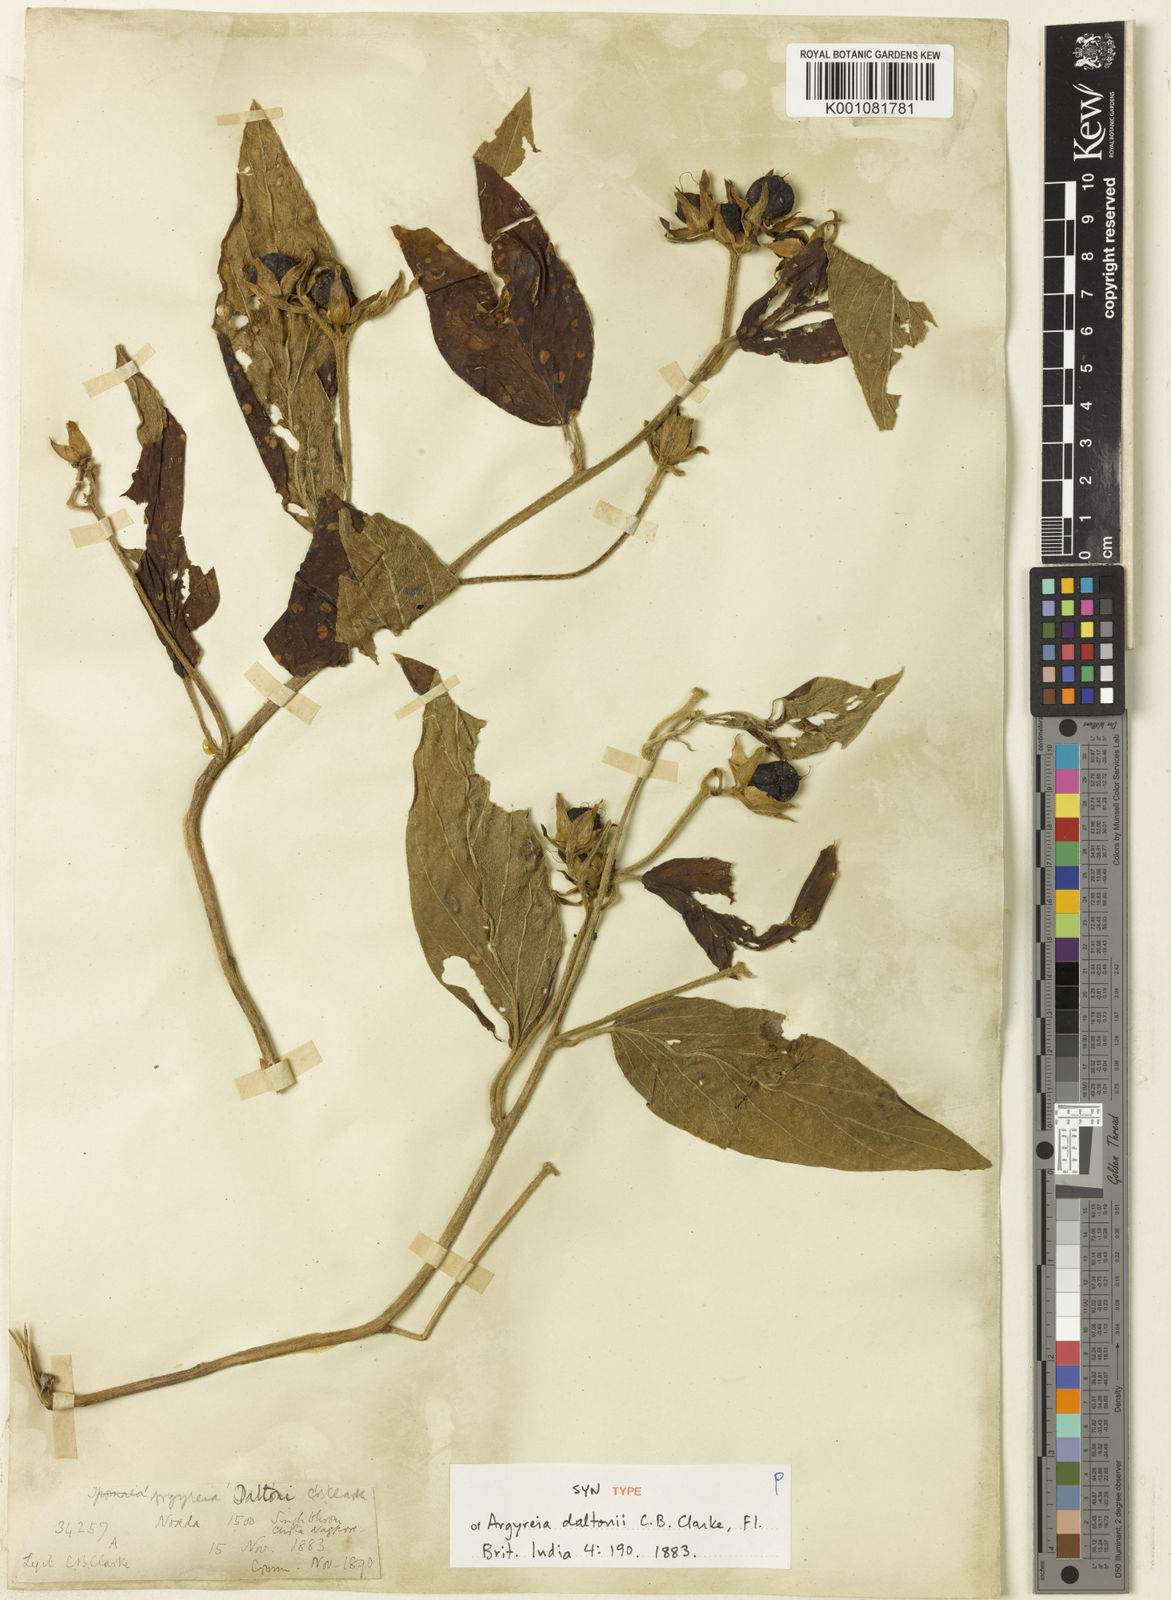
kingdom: Plantae
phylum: Tracheophyta
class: Magnoliopsida
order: Solanales
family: Convolvulaceae
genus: Argyreia
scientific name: Argyreia daltonii
